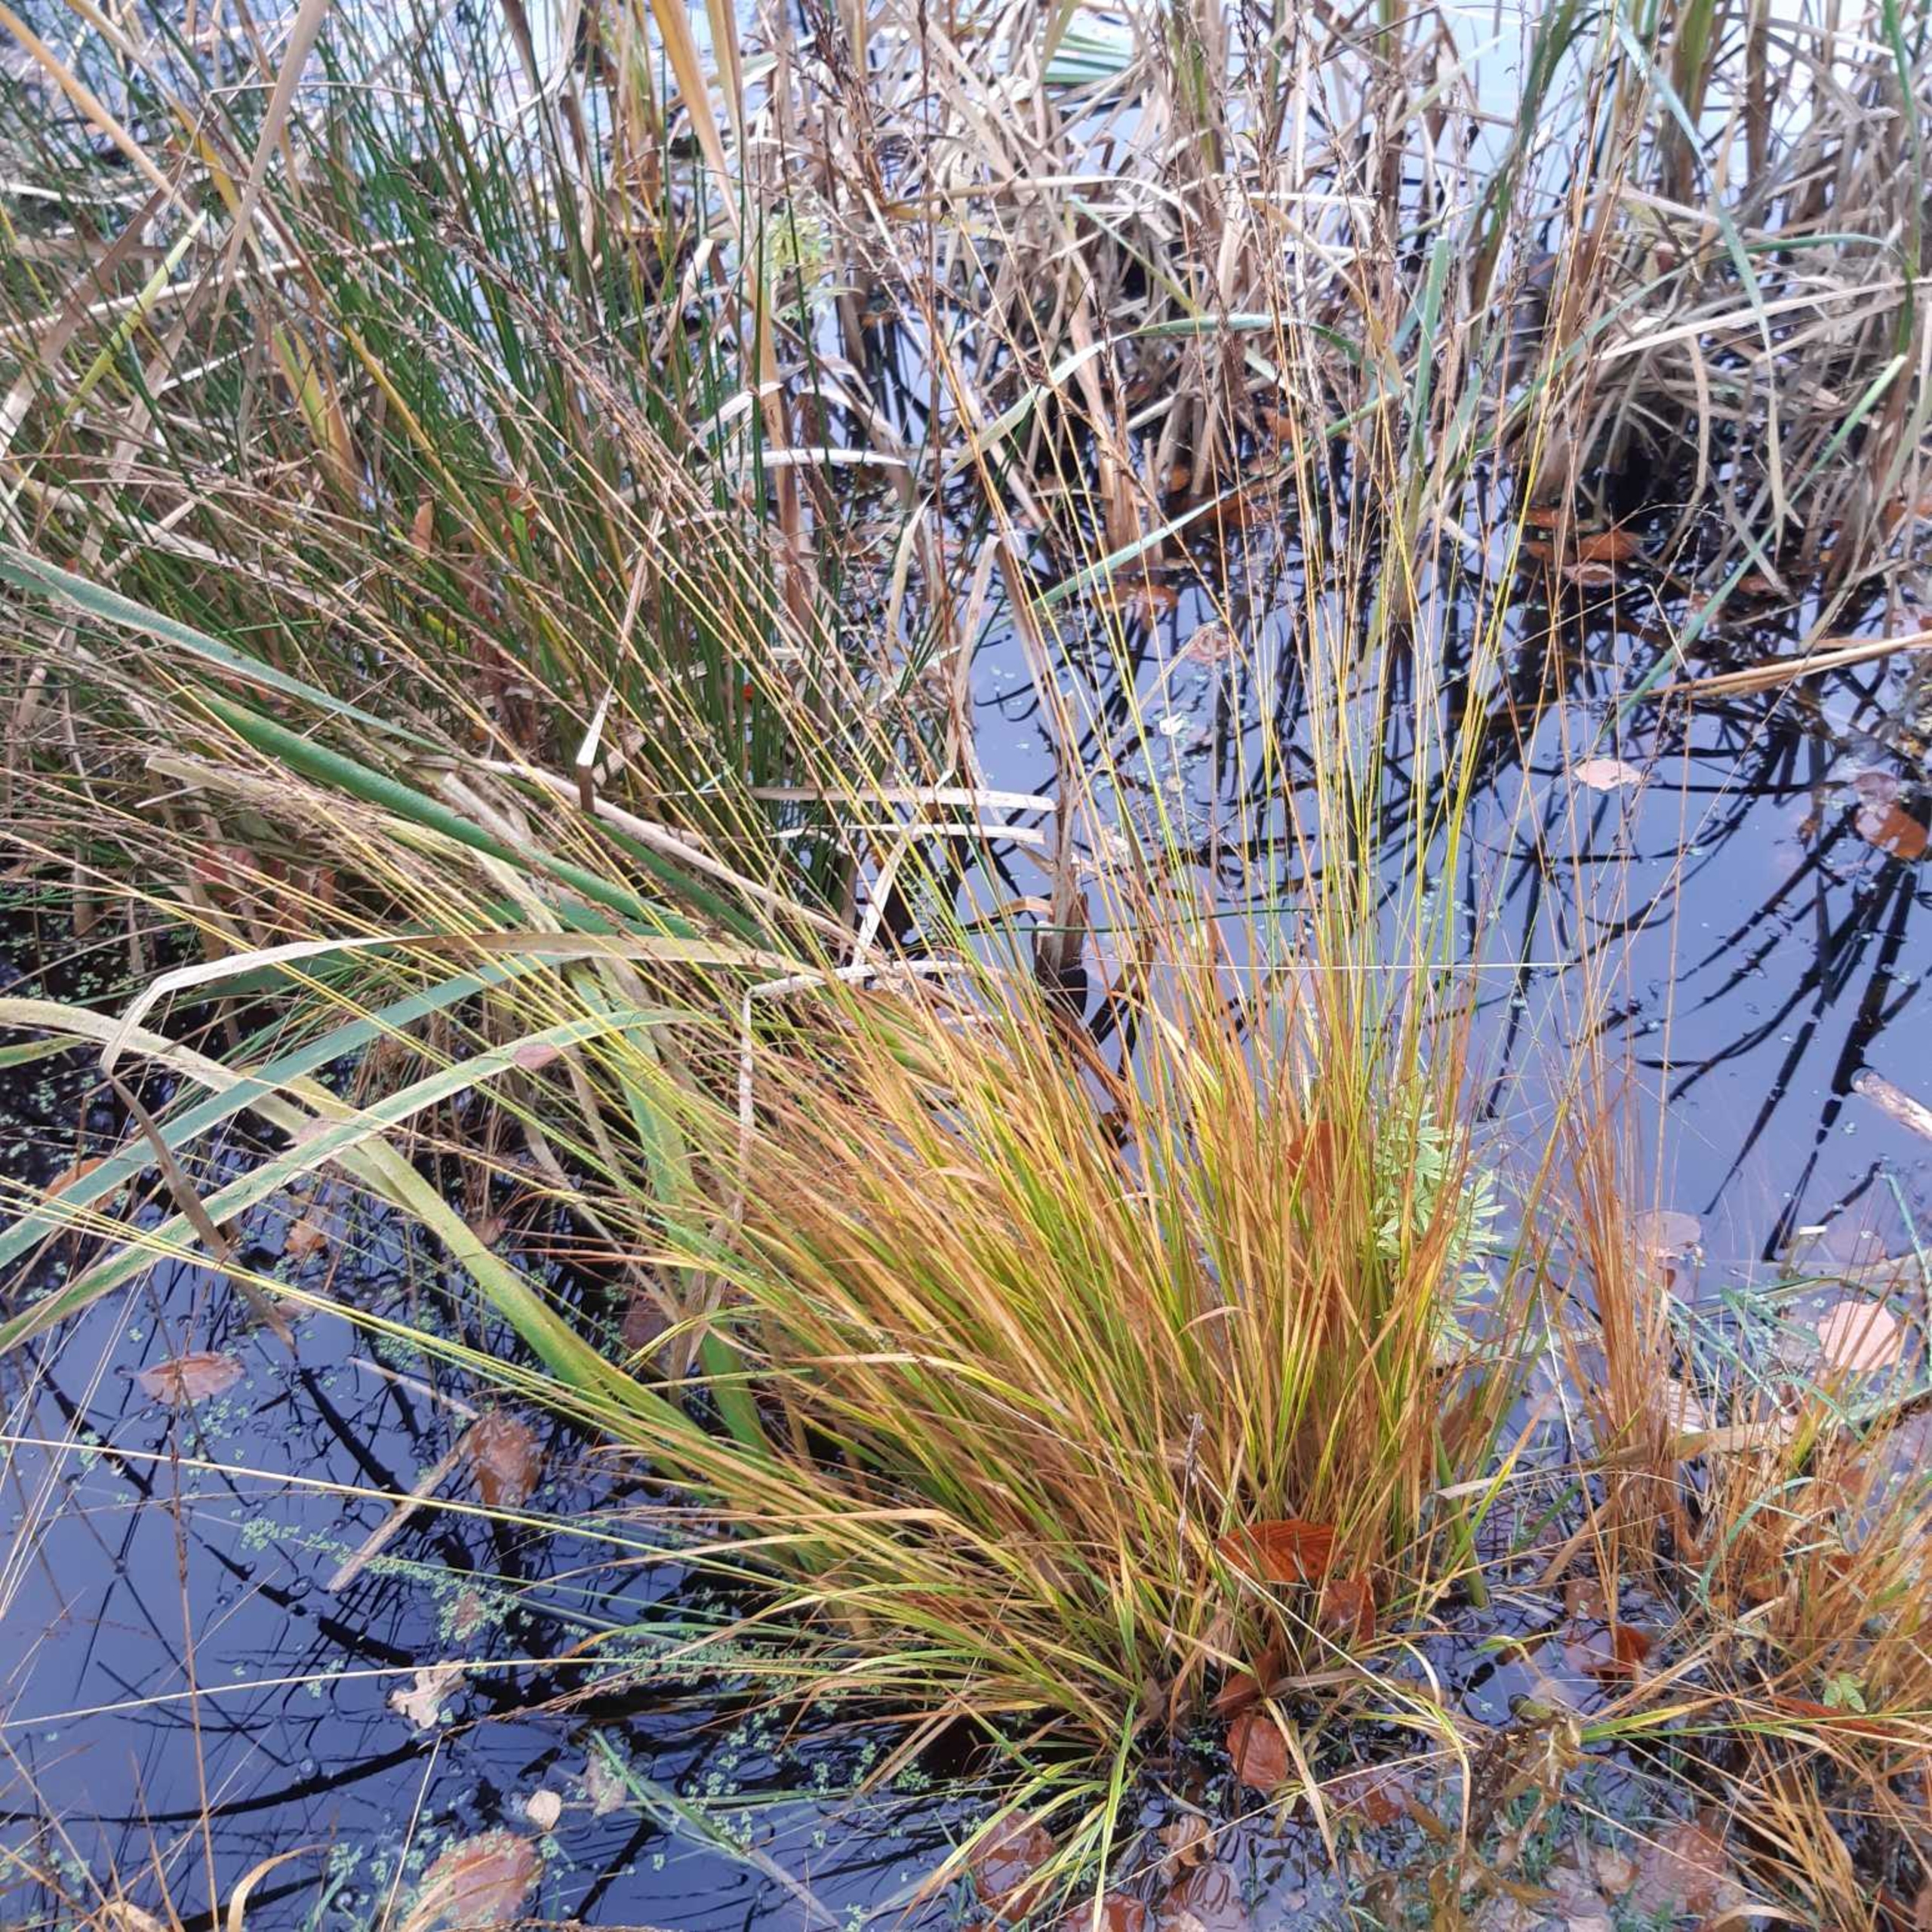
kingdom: Plantae
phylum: Tracheophyta
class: Liliopsida
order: Poales
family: Poaceae
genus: Molinia
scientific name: Molinia caerulea
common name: Blåtop
